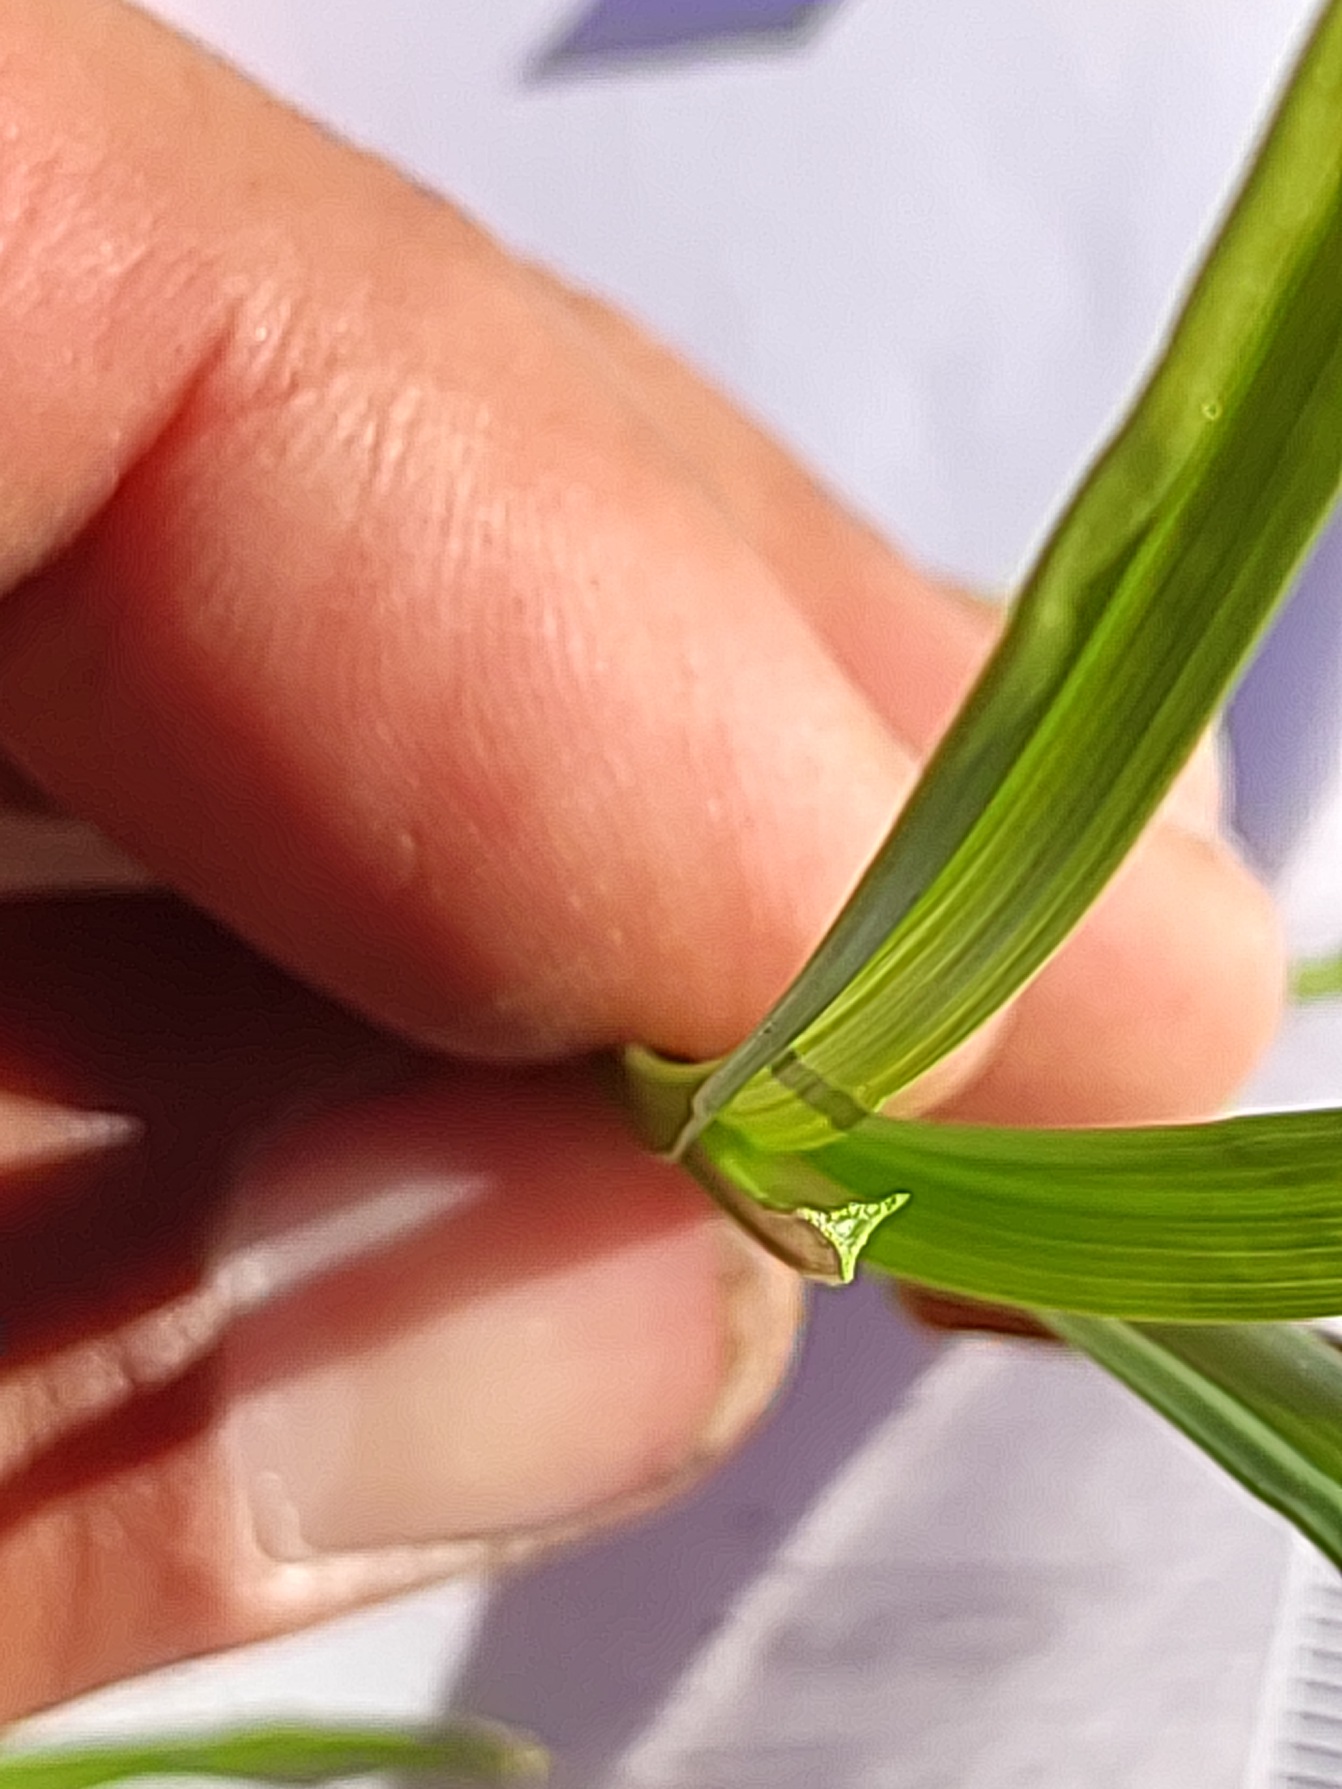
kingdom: Plantae
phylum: Tracheophyta
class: Liliopsida
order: Poales
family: Cyperaceae
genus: Carex
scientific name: Carex otrubae
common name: Sylt-star
